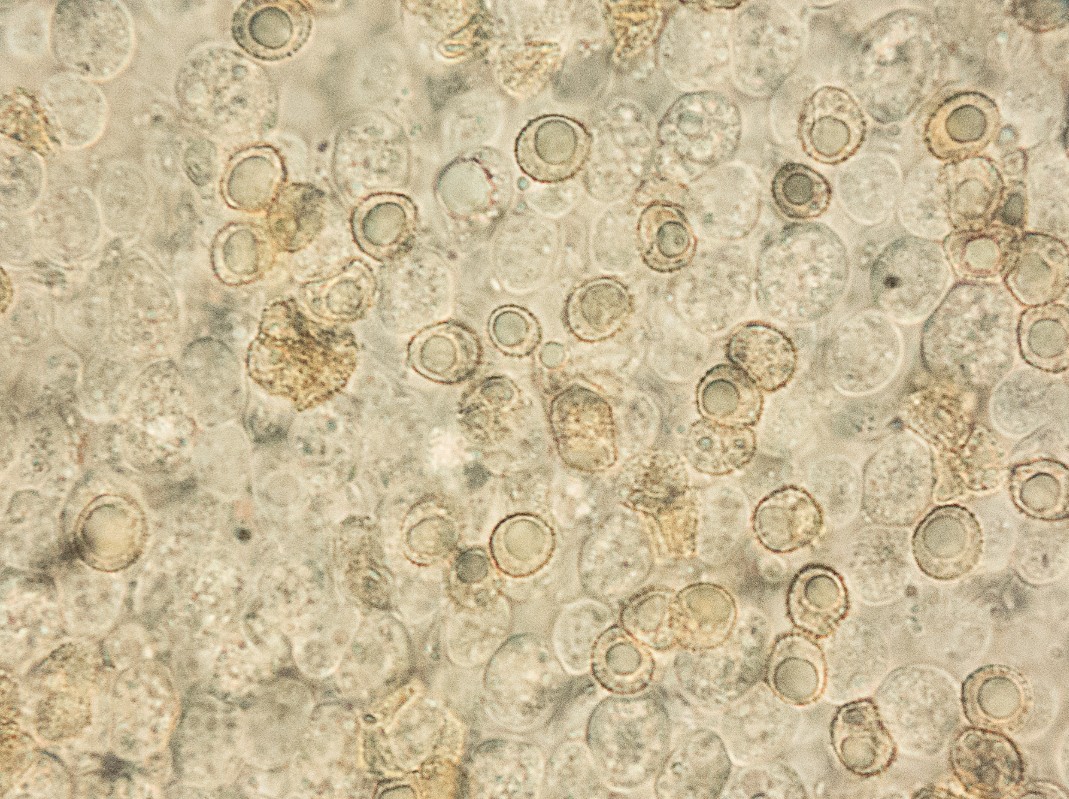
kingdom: Fungi
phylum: Basidiomycota
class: Agaricomycetes
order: Agaricales
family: Crepidotaceae
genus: Crepidotus
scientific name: Crepidotus cesatii
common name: almindelig muslingesvamp
